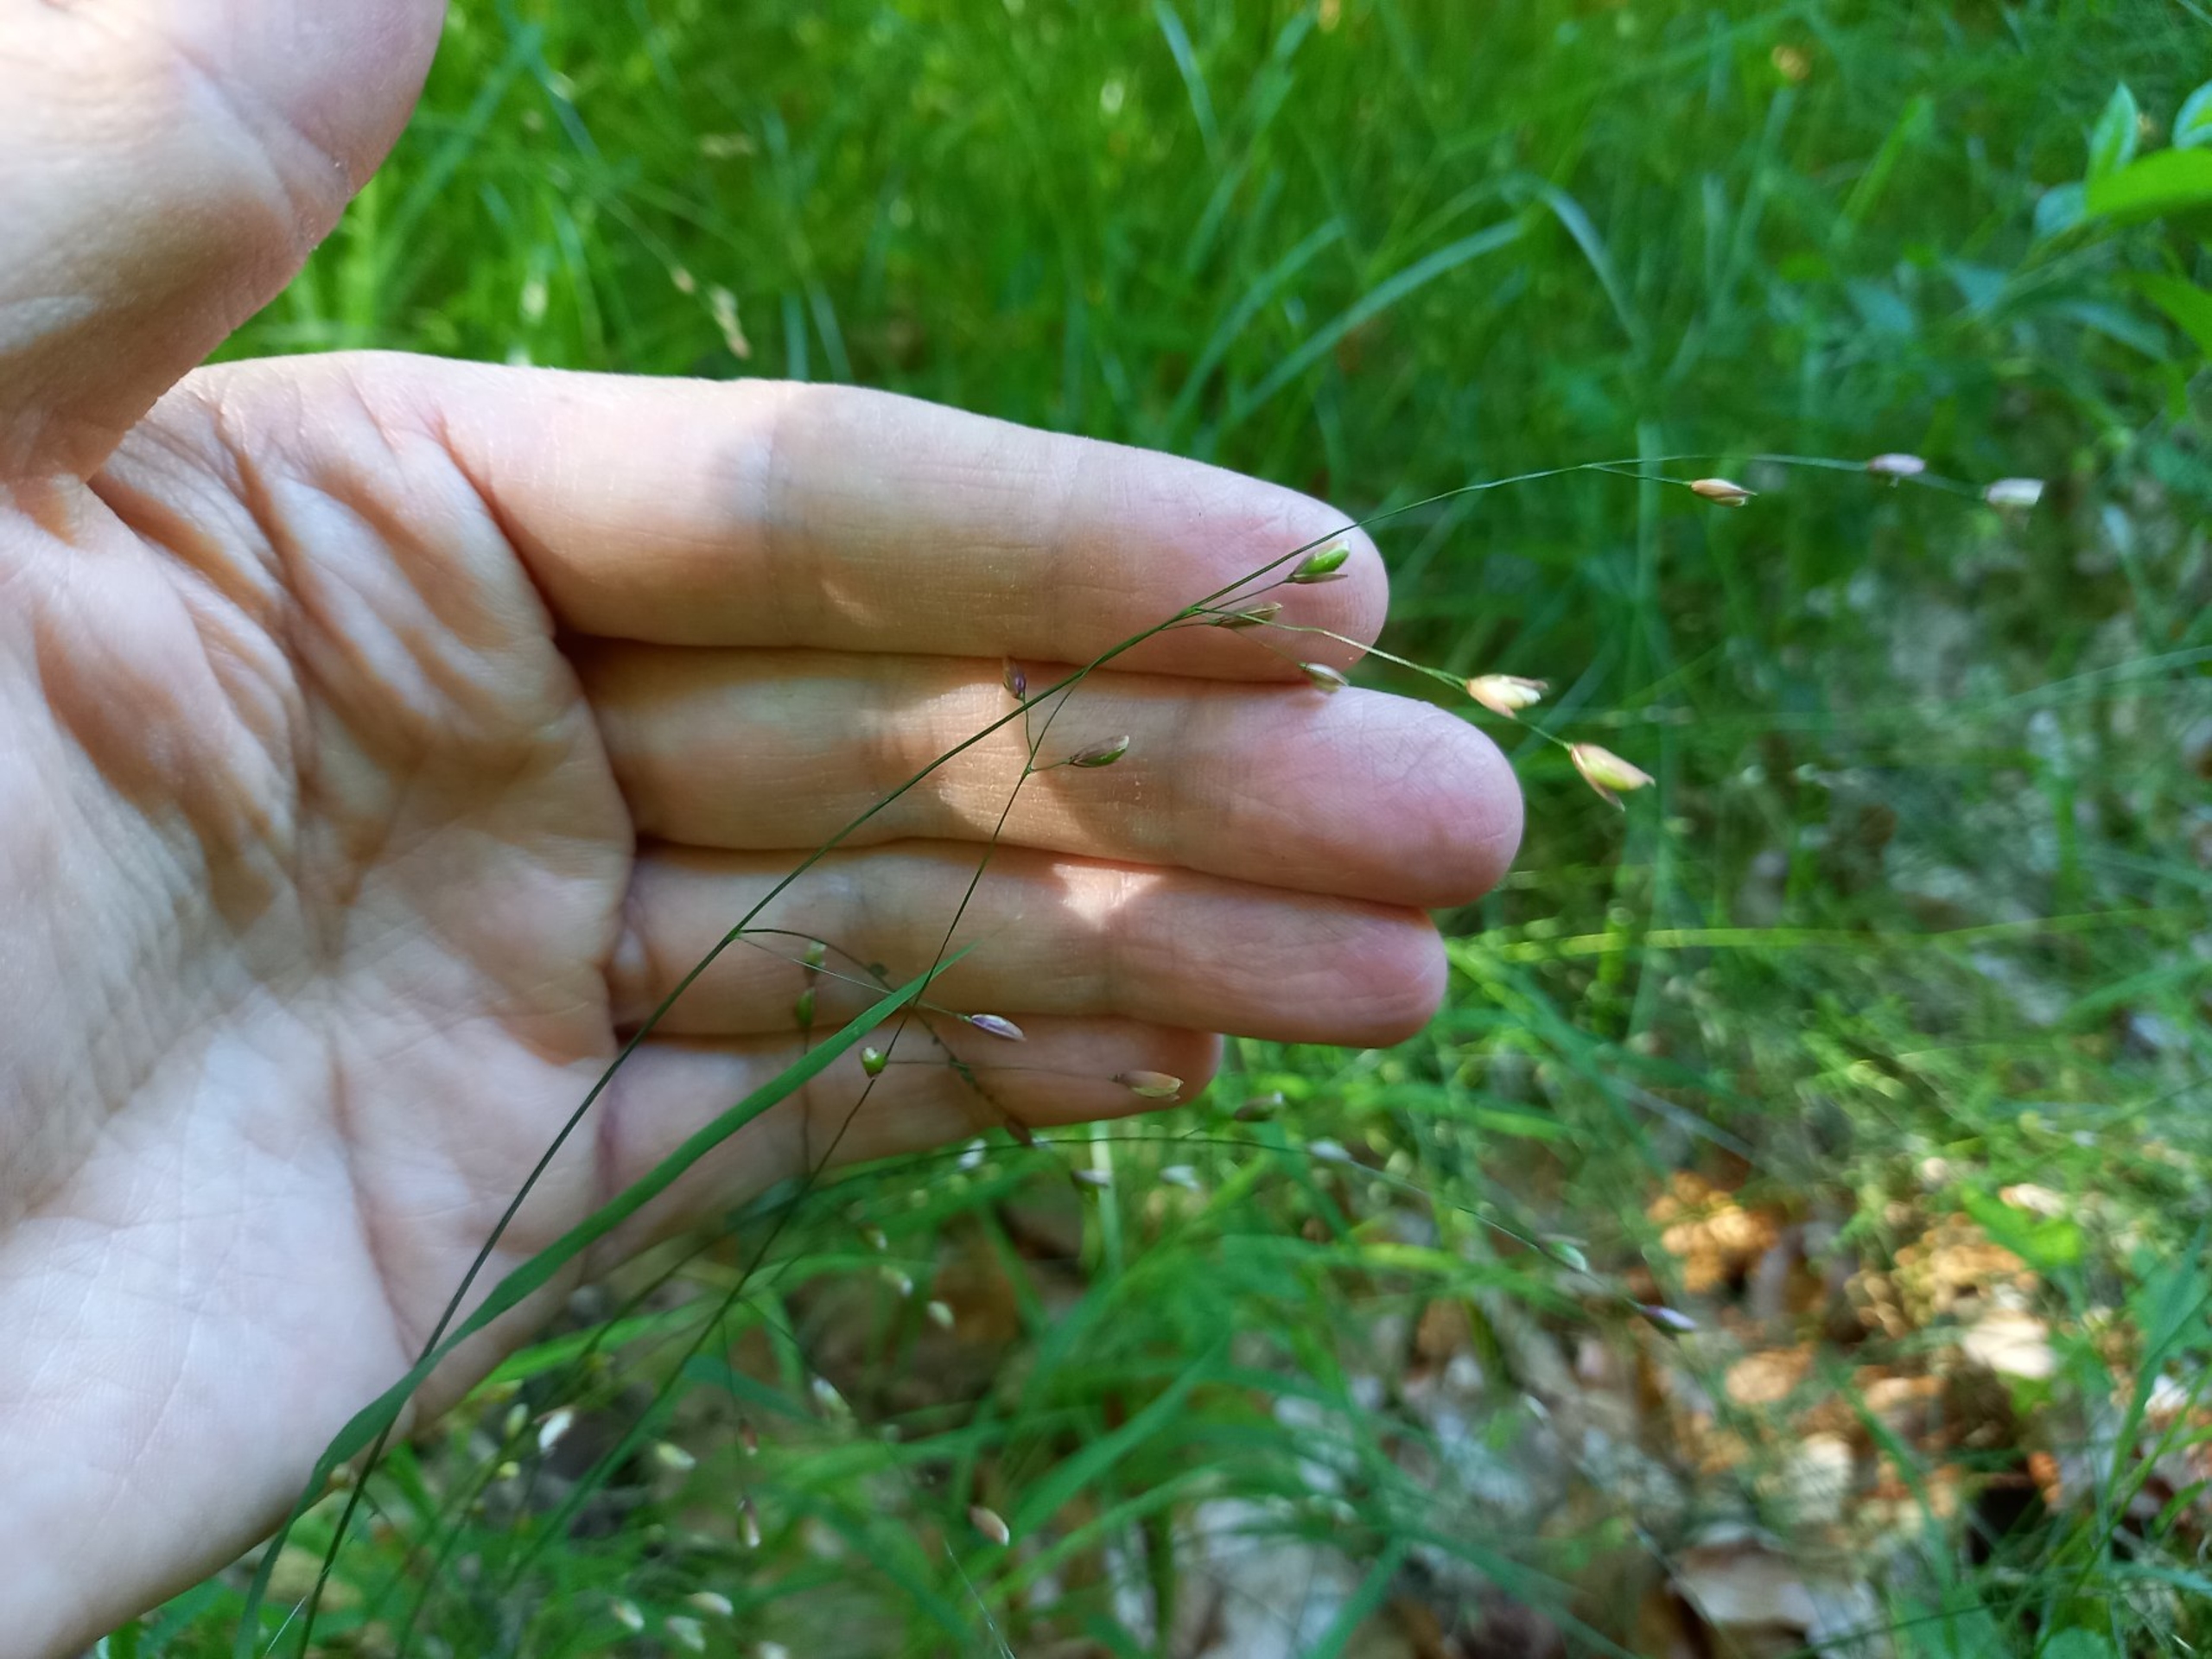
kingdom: Plantae
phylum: Tracheophyta
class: Liliopsida
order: Poales
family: Poaceae
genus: Melica
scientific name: Melica uniflora
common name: Enblomstret flitteraks
